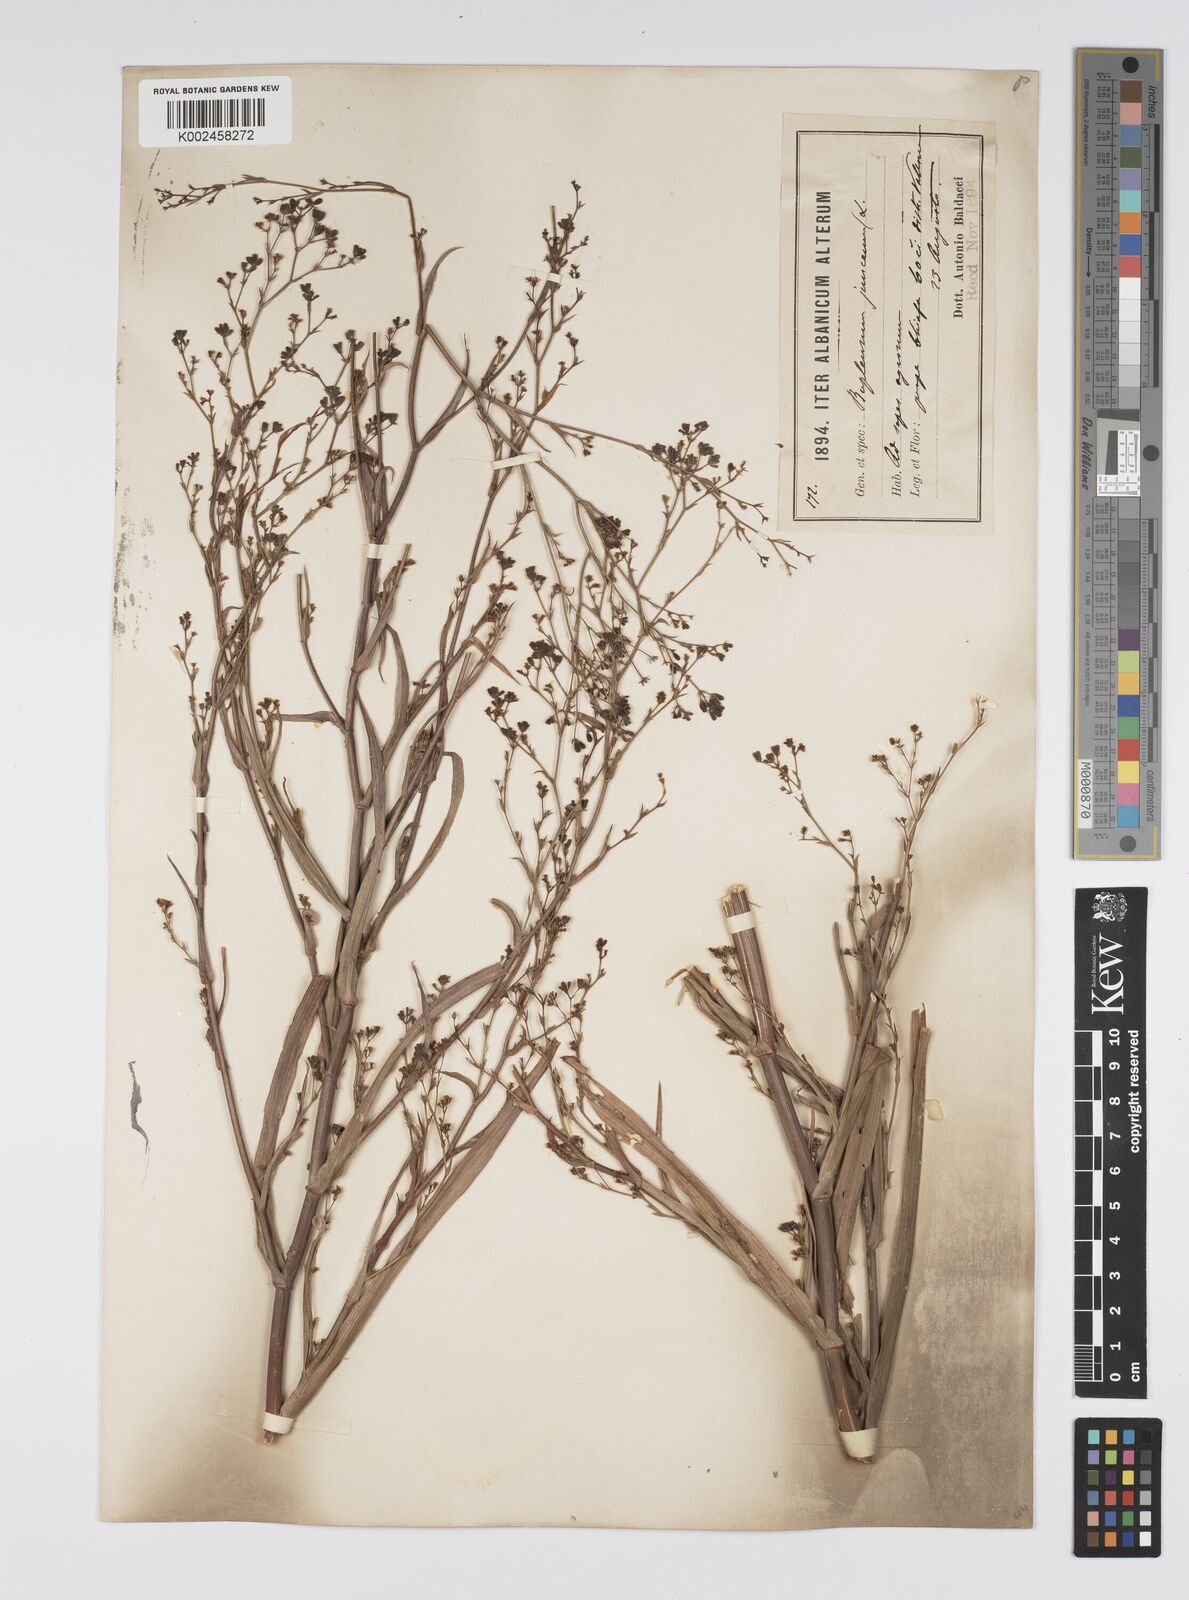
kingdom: Plantae
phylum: Tracheophyta
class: Magnoliopsida
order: Apiales
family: Apiaceae
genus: Bupleurum
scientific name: Bupleurum praealtum
